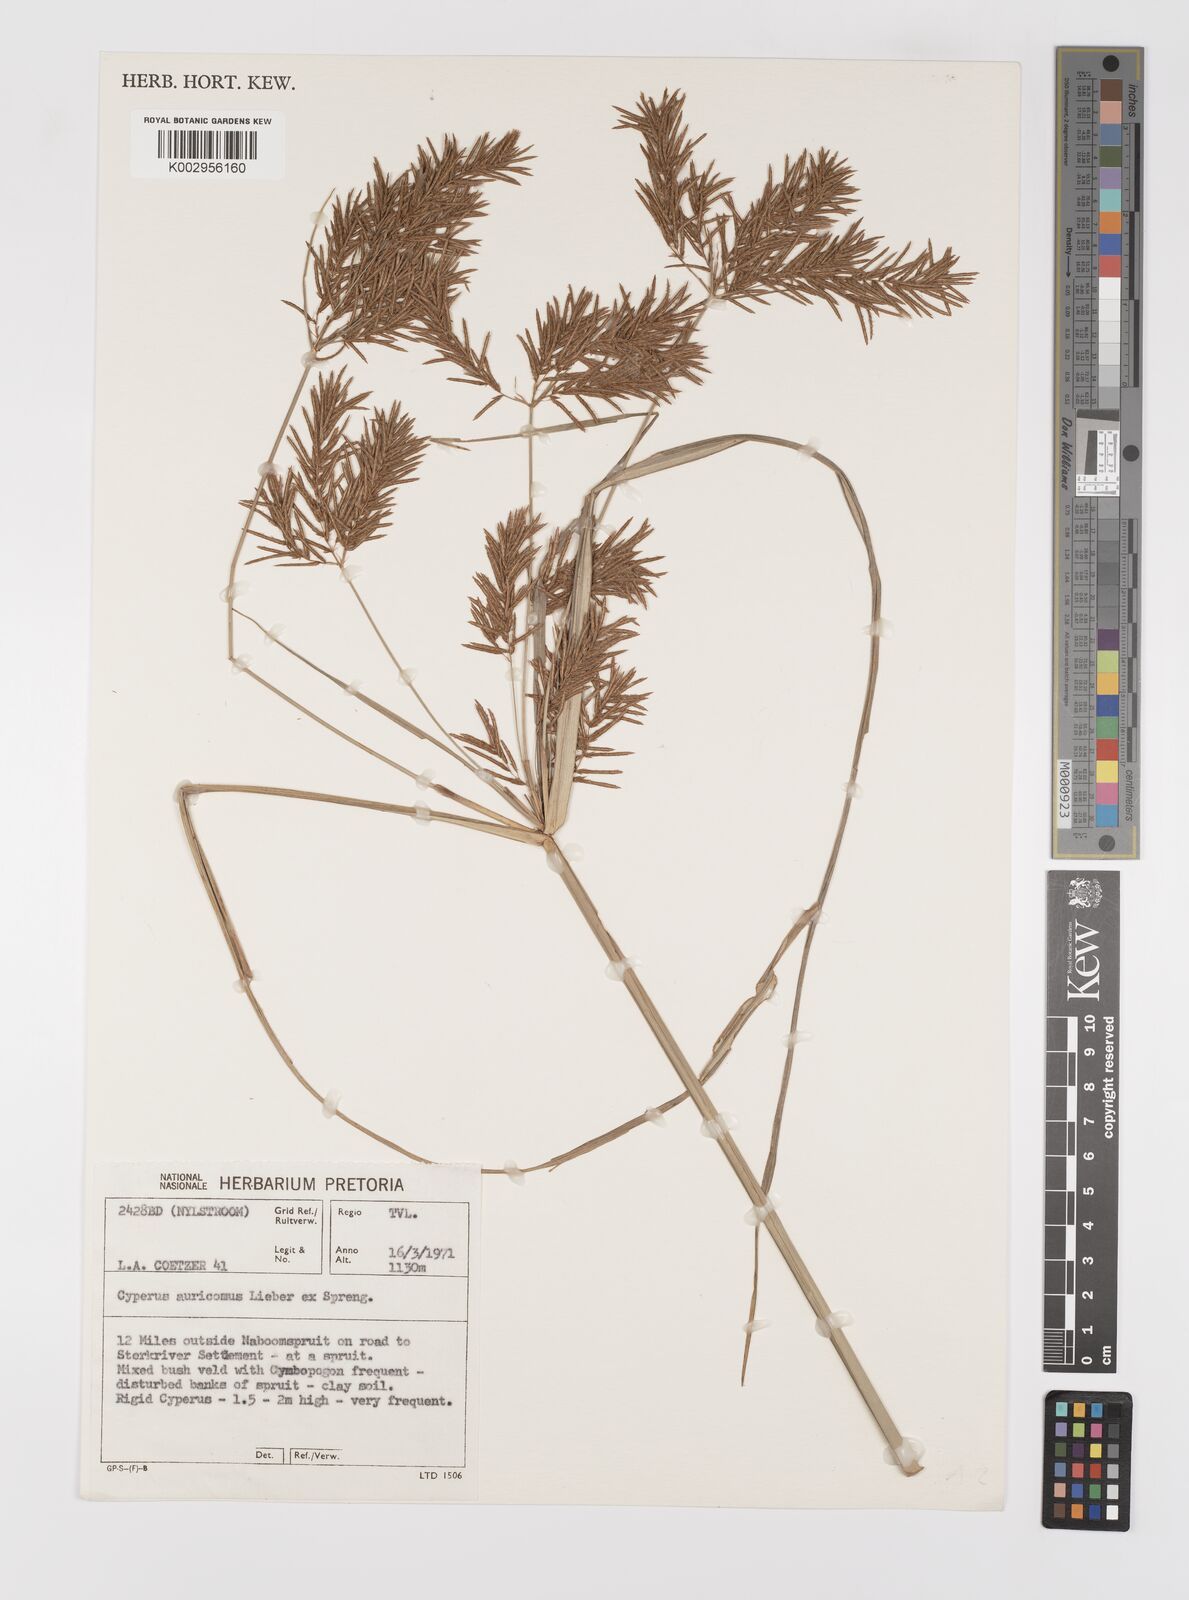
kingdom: Plantae
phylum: Tracheophyta
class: Liliopsida
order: Poales
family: Cyperaceae
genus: Cyperus
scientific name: Cyperus digitatus
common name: Finger flatsedge
